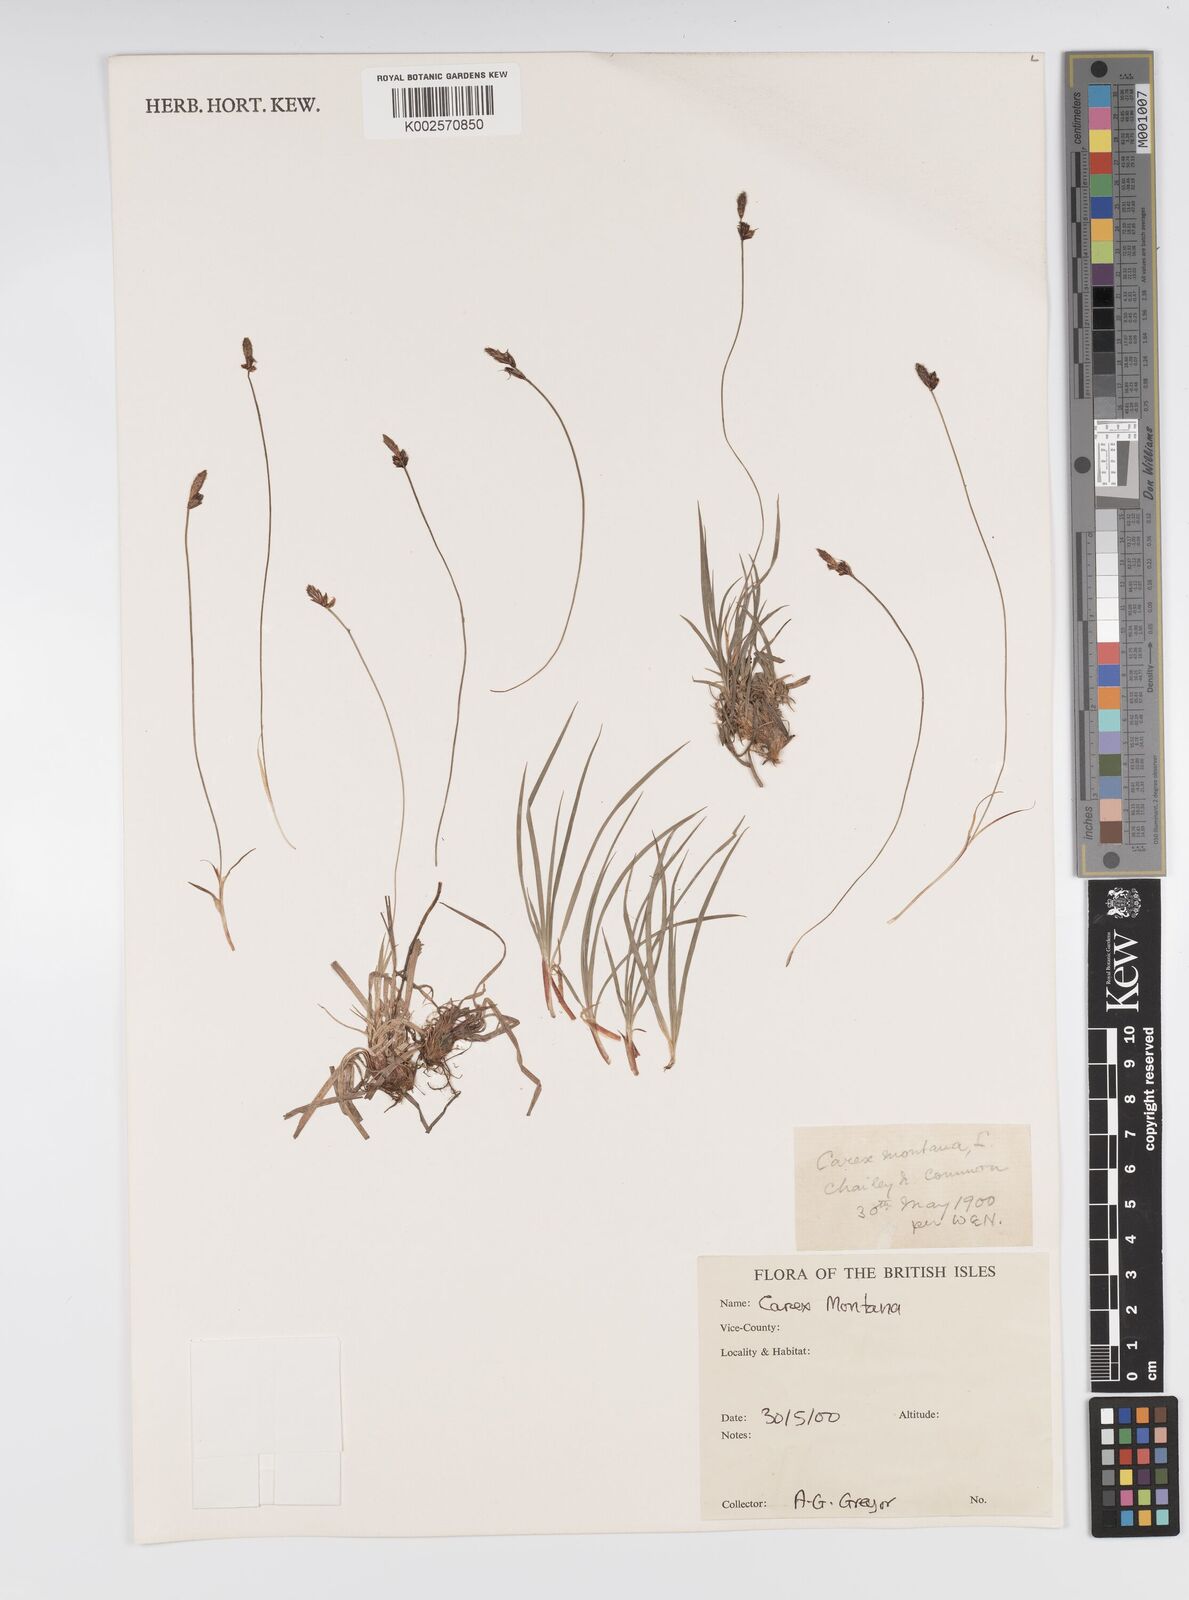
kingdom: Plantae
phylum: Tracheophyta
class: Liliopsida
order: Poales
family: Cyperaceae
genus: Carex
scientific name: Carex montana
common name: Soft-leaved sedge
